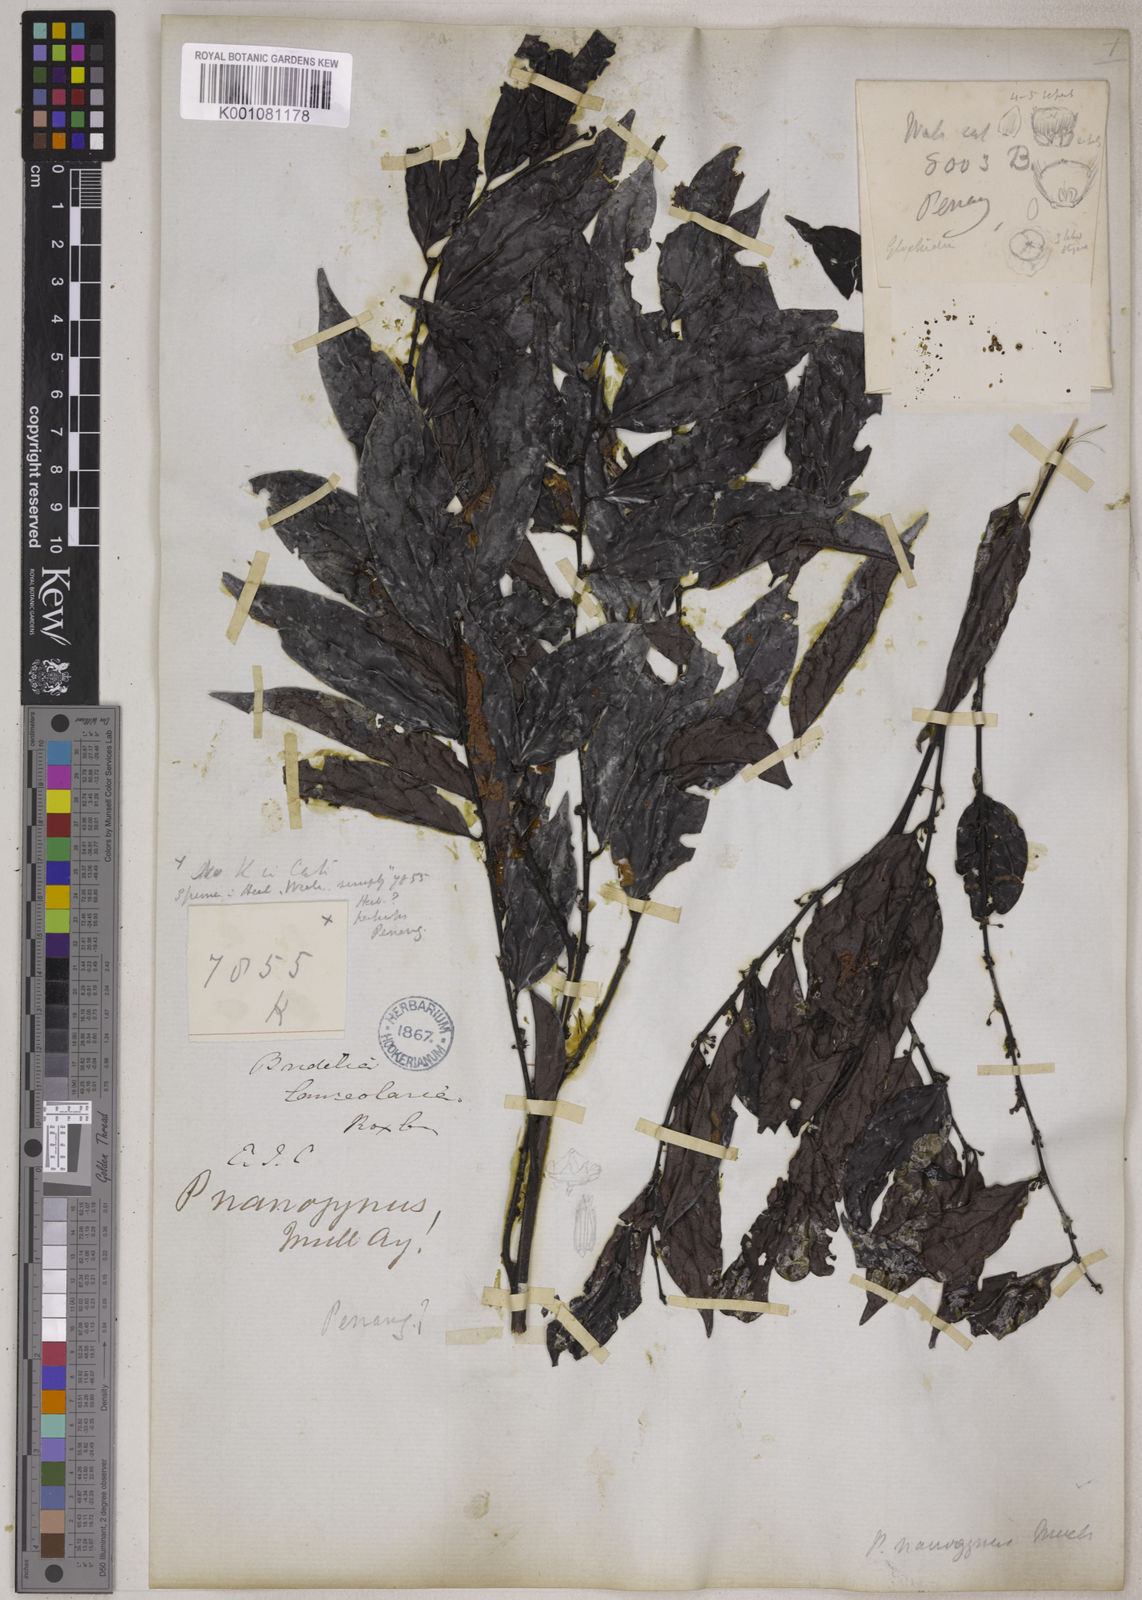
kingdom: Plantae
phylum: Tracheophyta
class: Magnoliopsida
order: Malpighiales
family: Phyllanthaceae
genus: Glochidion
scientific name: Glochidion glomerulatum
